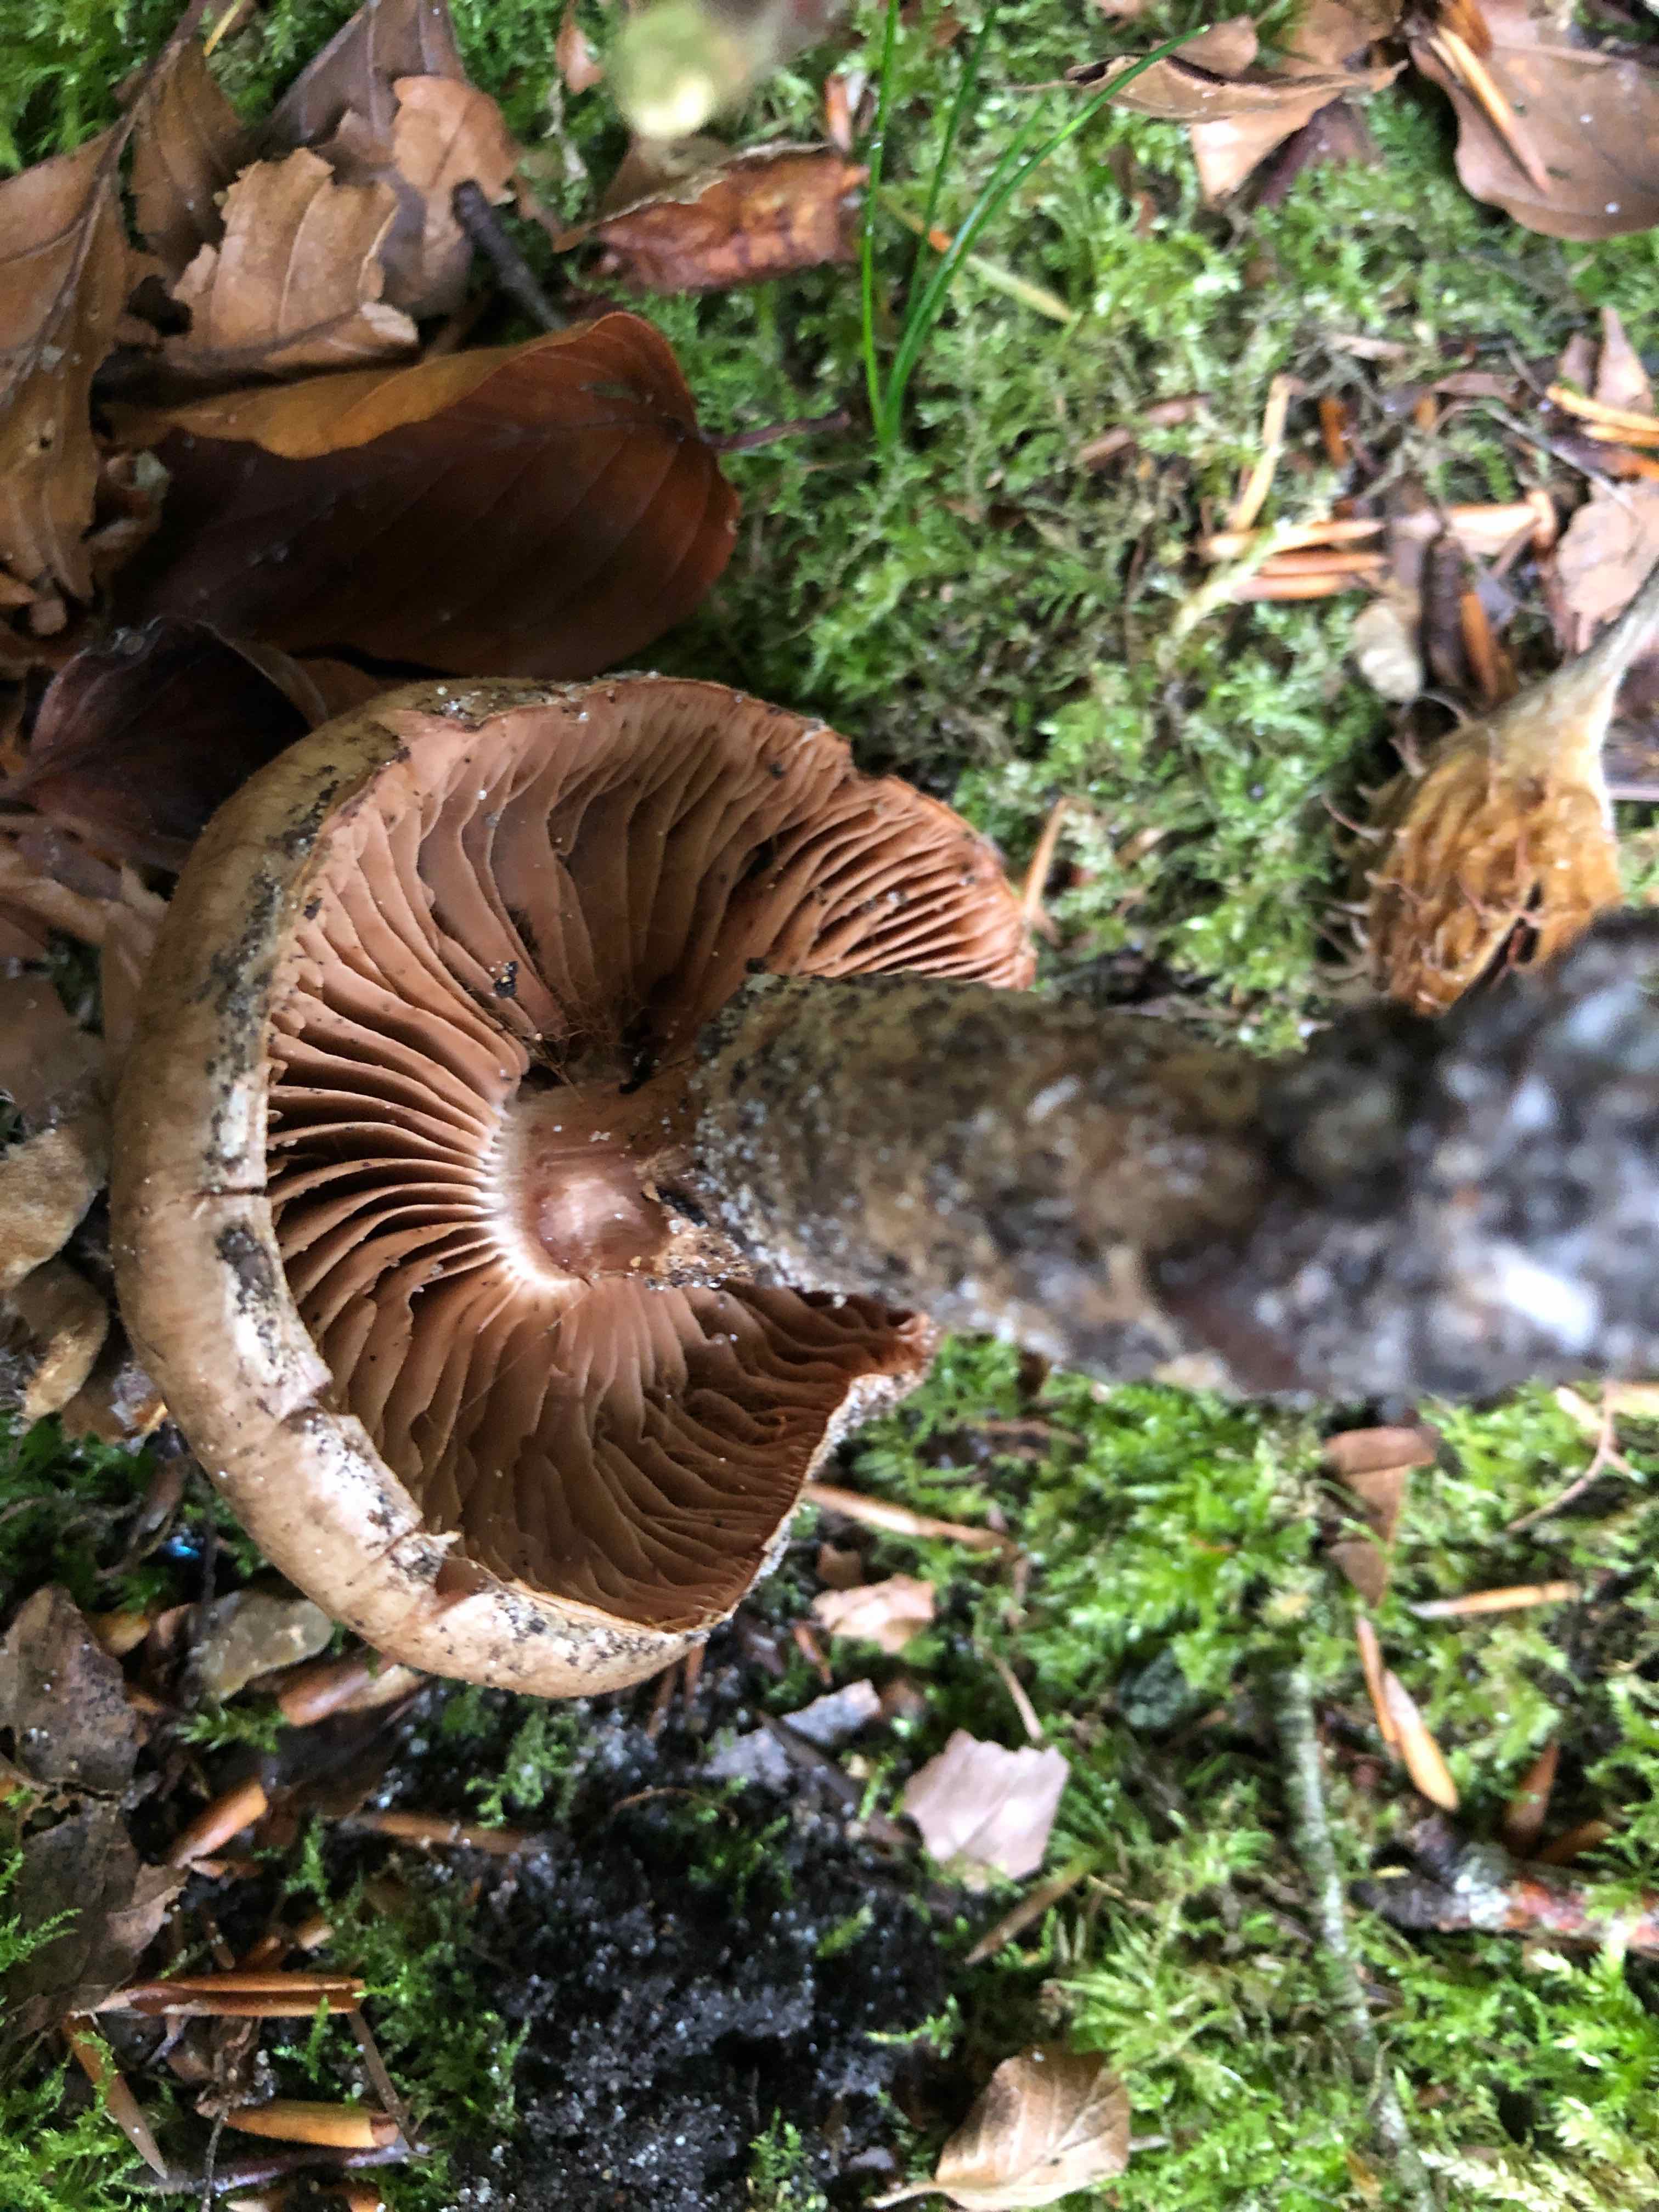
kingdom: Fungi
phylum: Basidiomycota
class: Agaricomycetes
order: Agaricales
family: Cortinariaceae
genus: Cortinarius
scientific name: Cortinarius torvus
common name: champignonagtig slørhat
